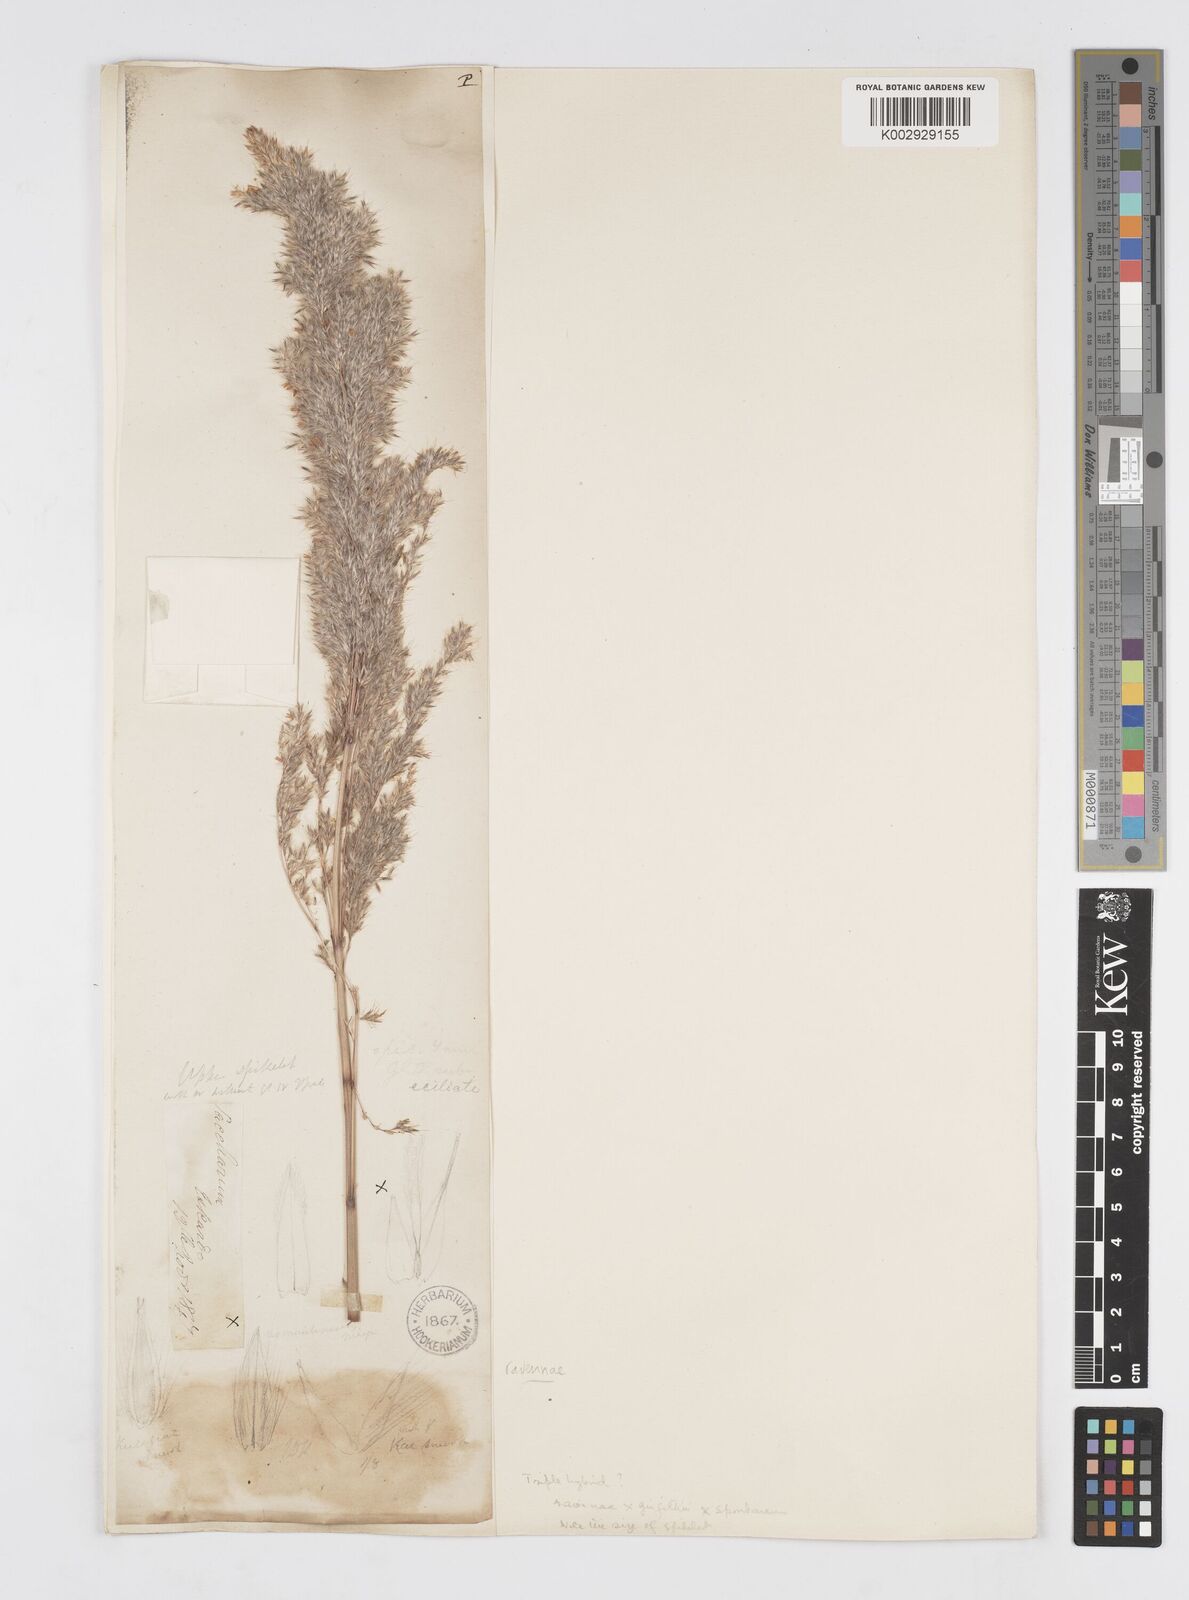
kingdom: Plantae
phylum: Tracheophyta
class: Liliopsida
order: Poales
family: Poaceae
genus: Saccharum
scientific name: Saccharum
